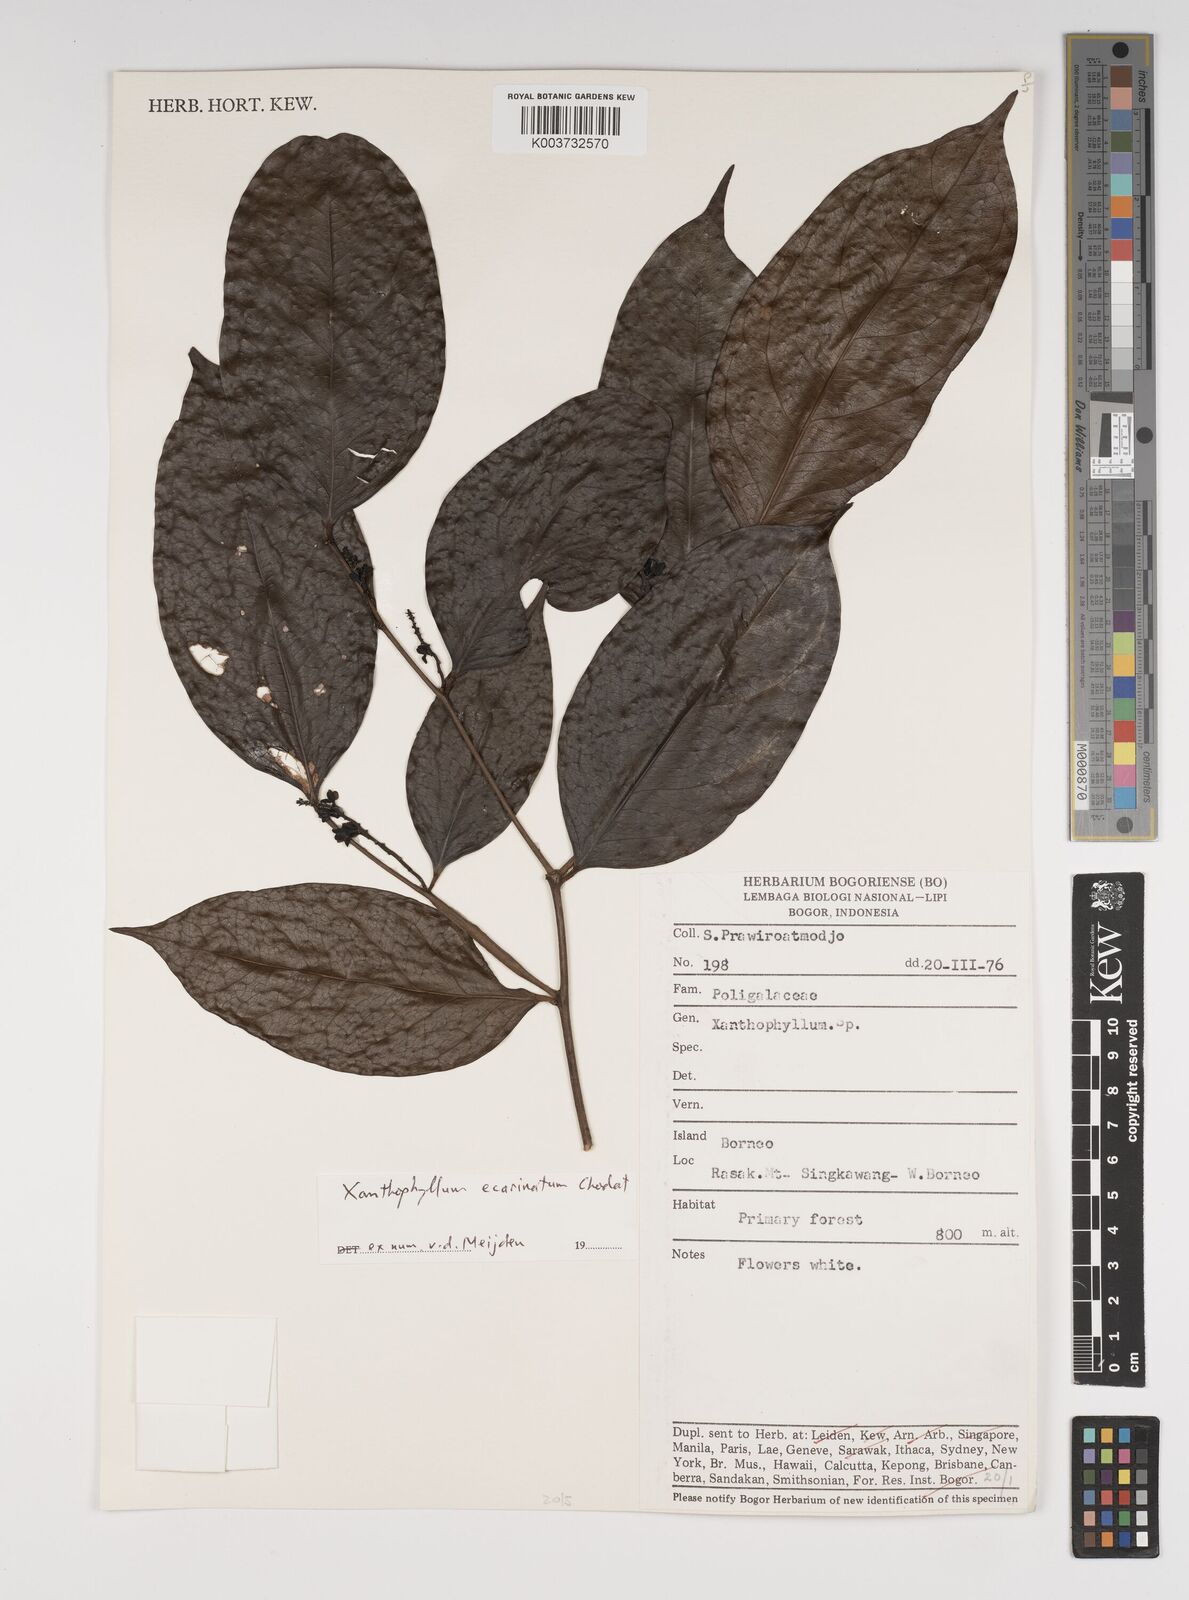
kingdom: Plantae
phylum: Tracheophyta
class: Magnoliopsida
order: Fabales
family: Polygalaceae
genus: Xanthophyllum
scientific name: Xanthophyllum ecarinatum
